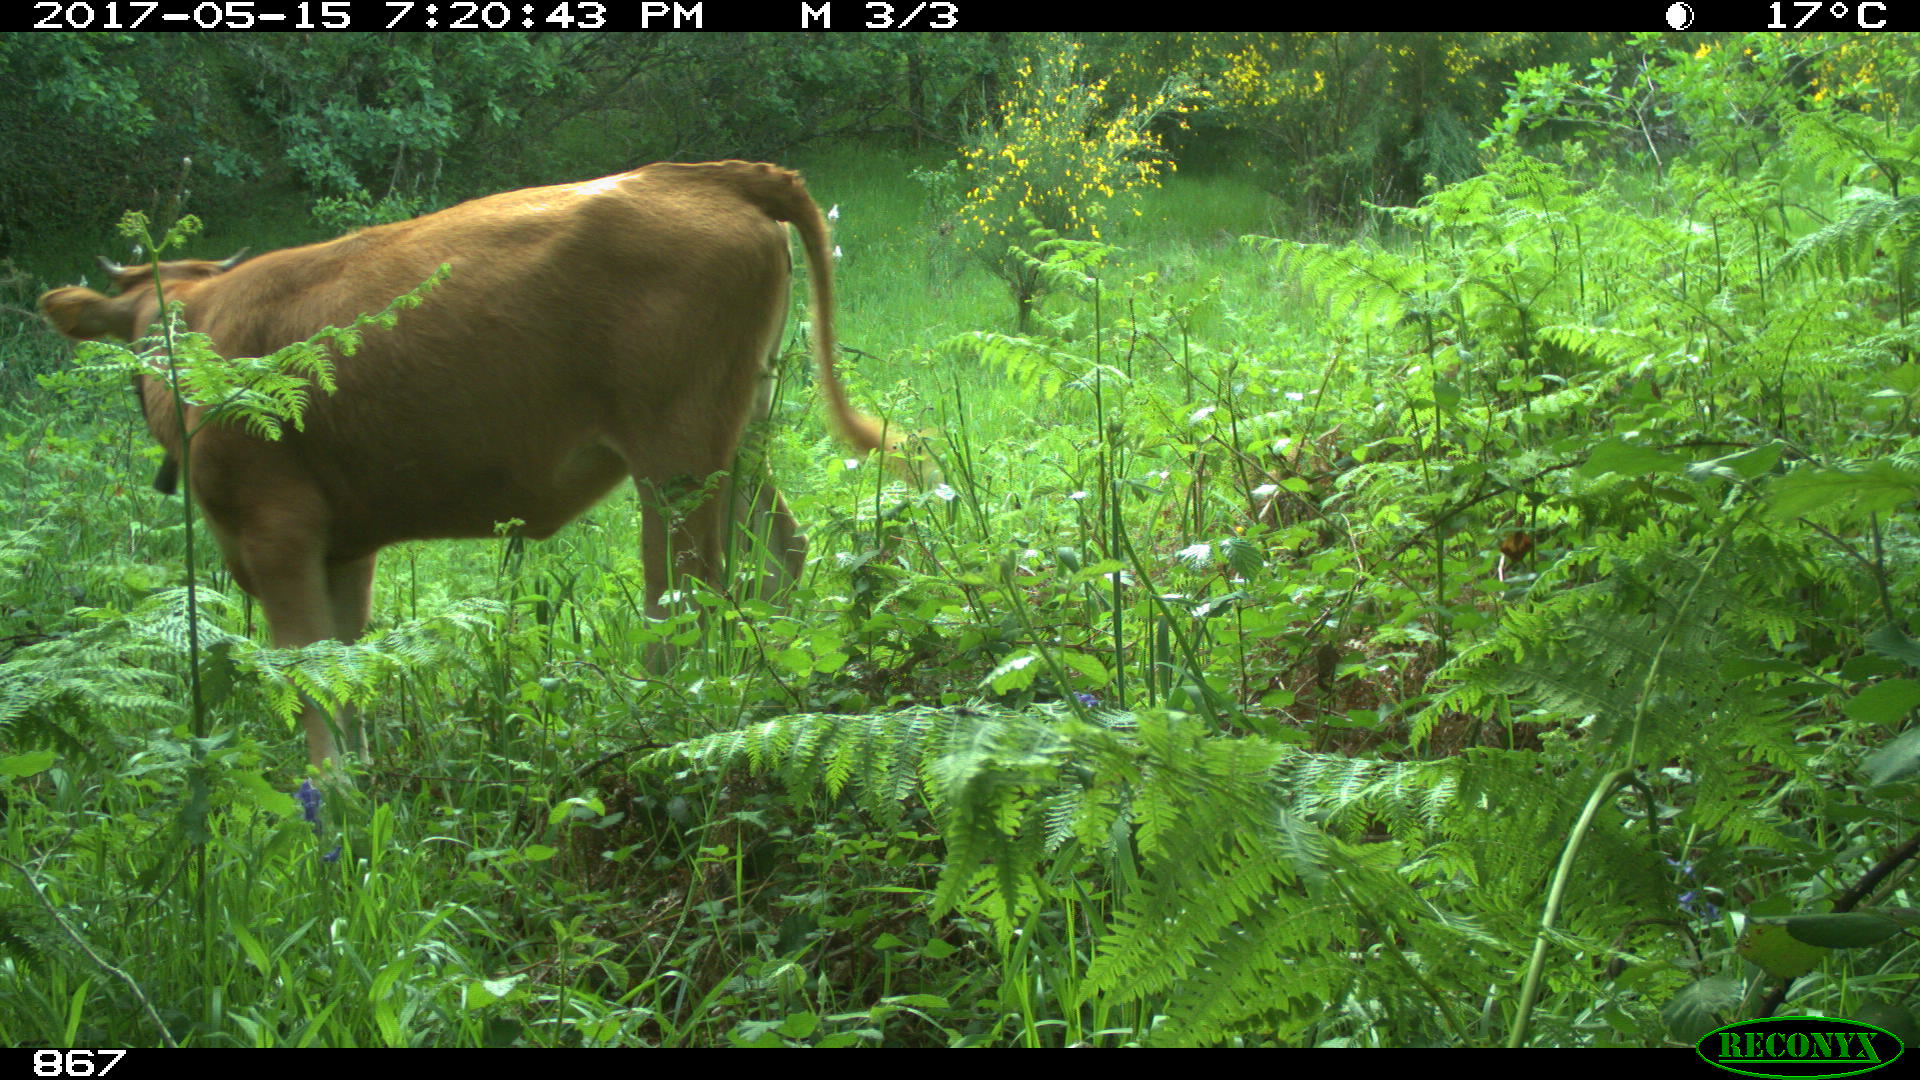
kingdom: Animalia
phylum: Chordata
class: Mammalia
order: Artiodactyla
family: Bovidae
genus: Bos
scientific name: Bos taurus
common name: Domesticated cattle
